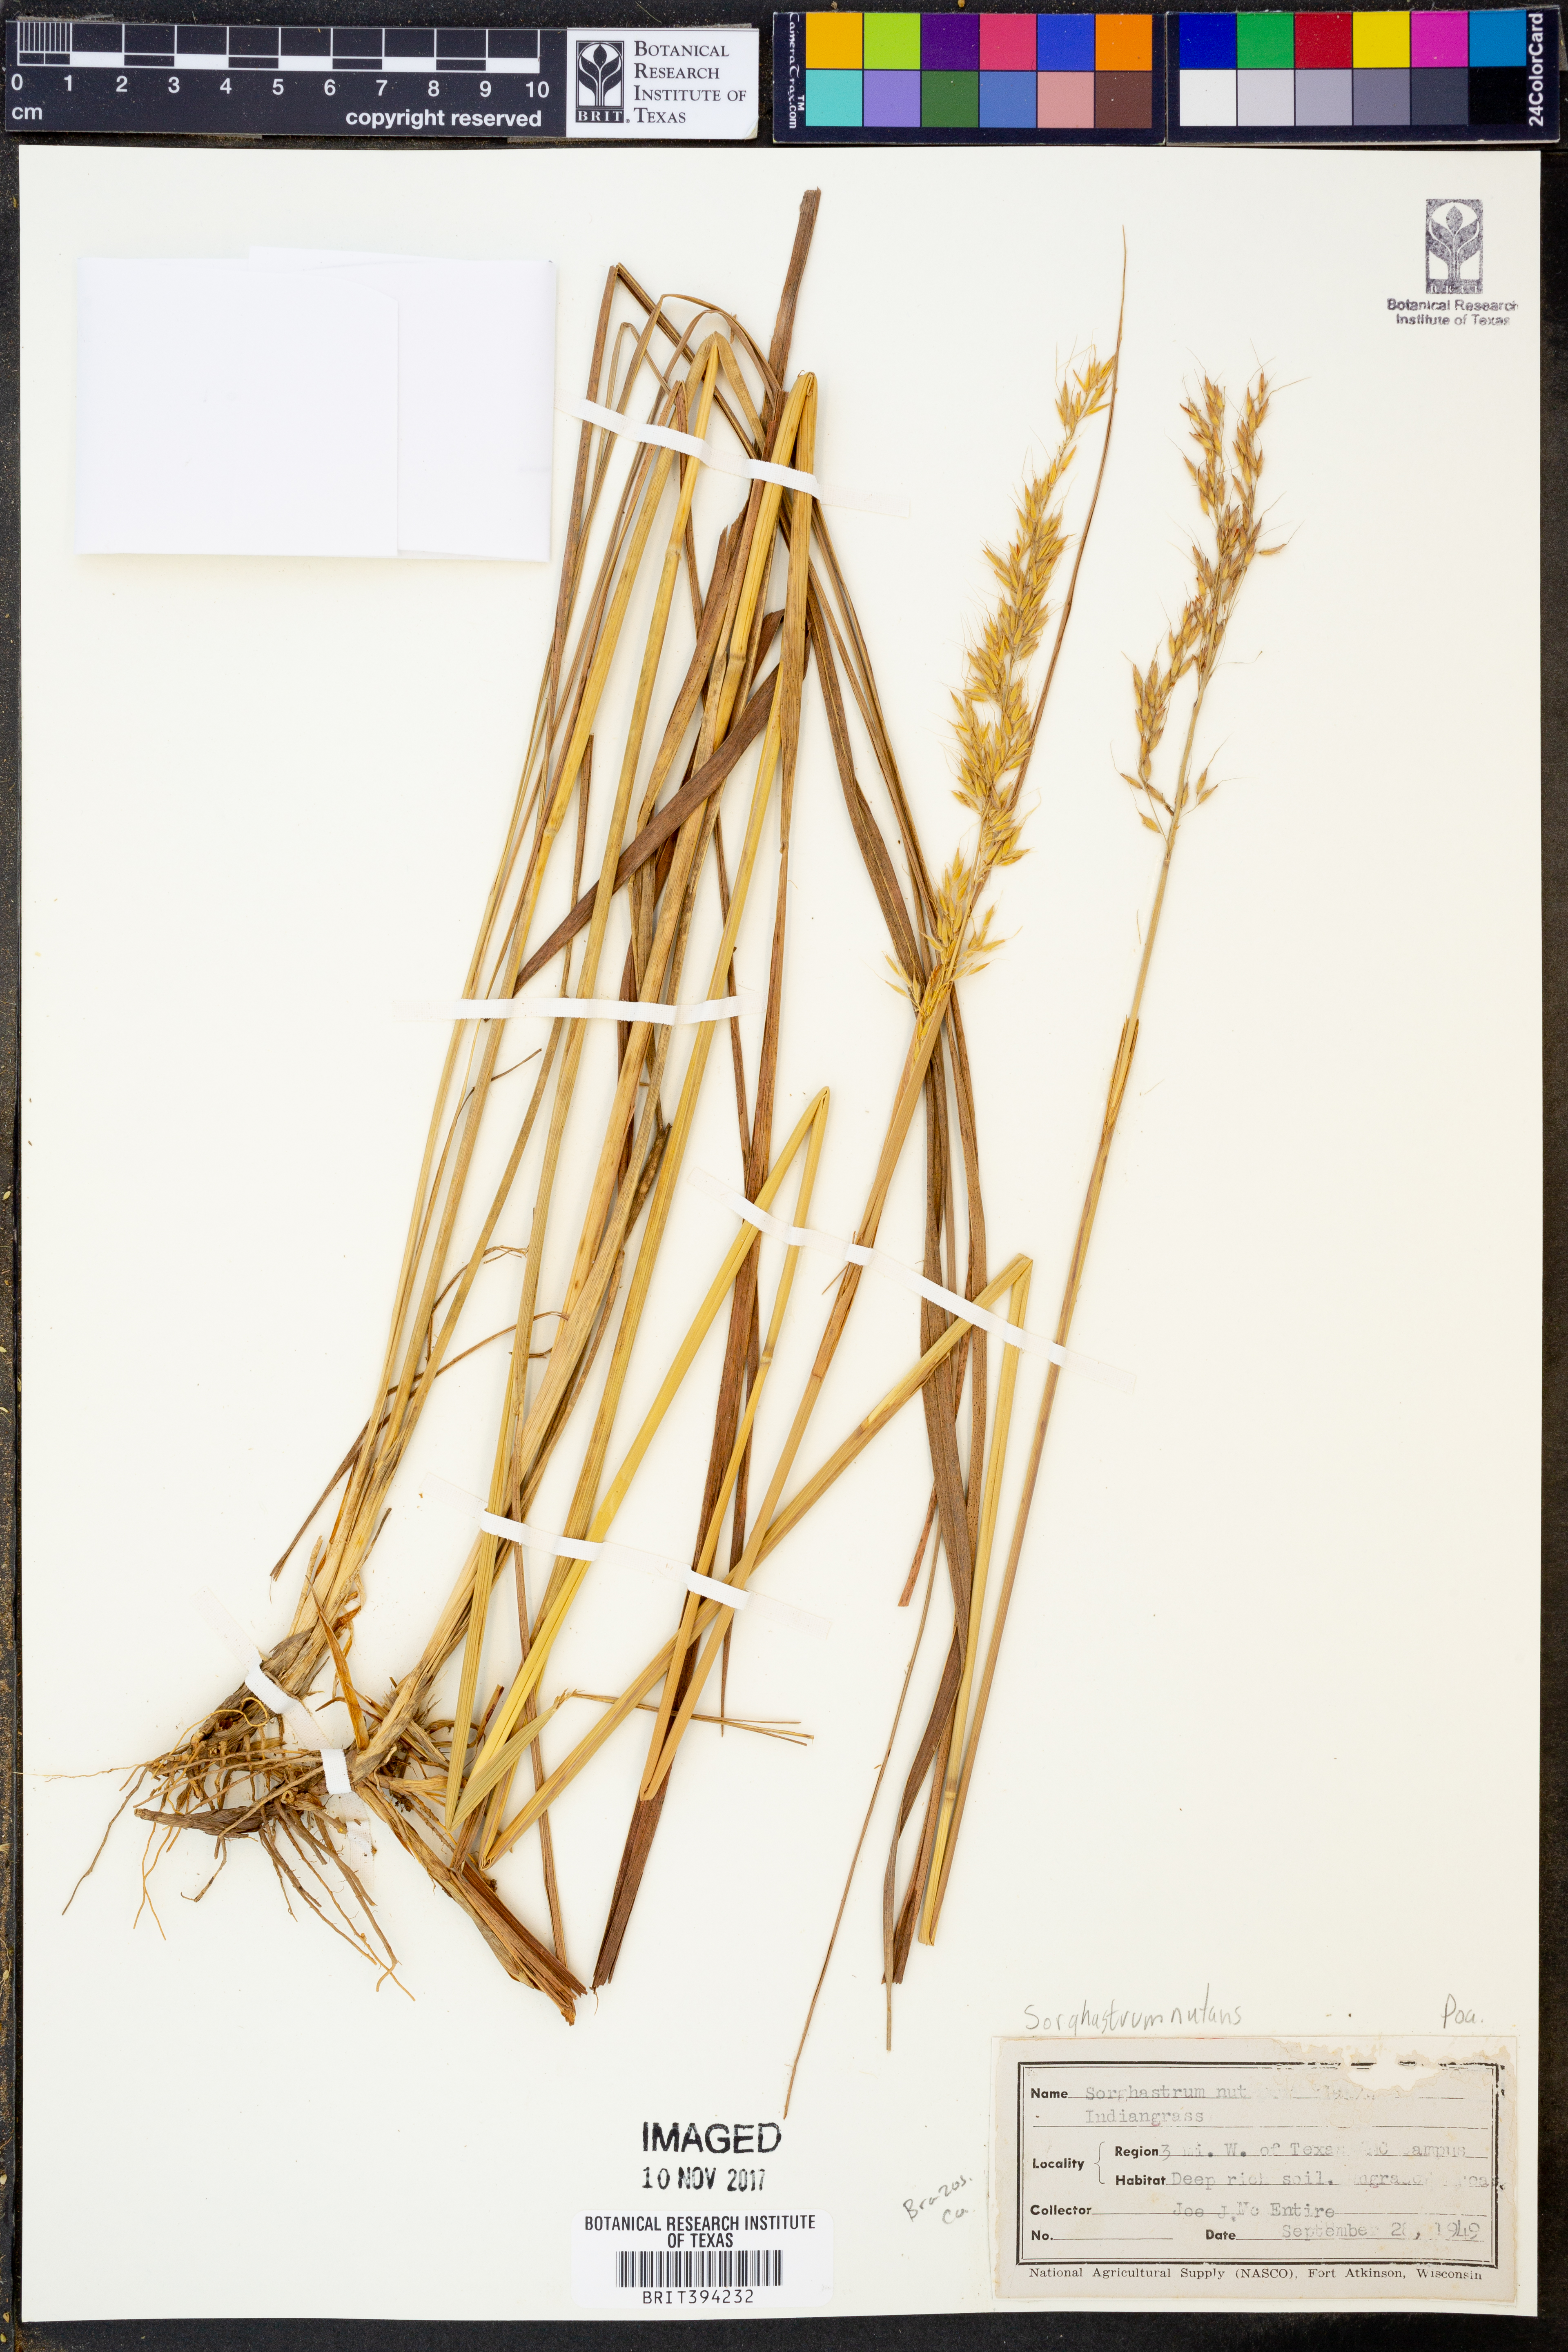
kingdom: Plantae
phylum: Tracheophyta
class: Liliopsida
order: Poales
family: Poaceae
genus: Sorghastrum
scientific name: Sorghastrum nutans
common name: Indian grass
